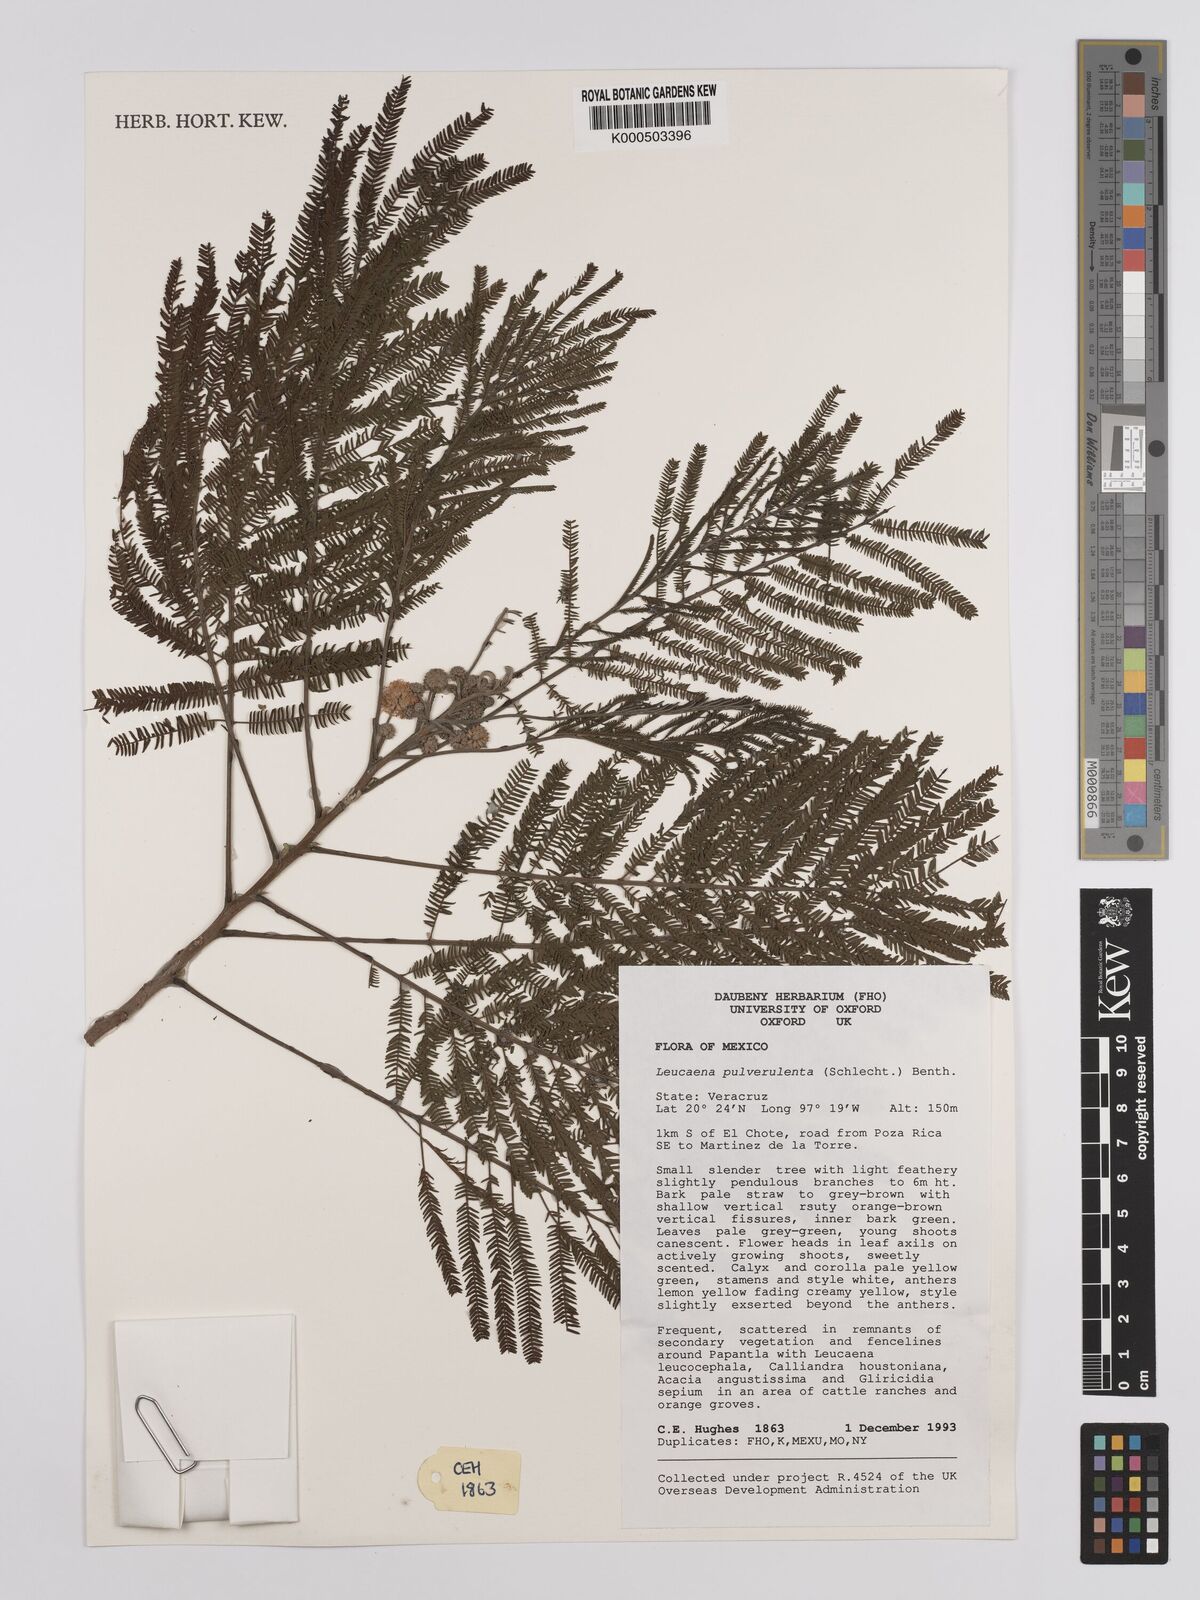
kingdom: Plantae
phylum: Tracheophyta
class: Magnoliopsida
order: Fabales
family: Fabaceae
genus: Leucaena
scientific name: Leucaena pulverulenta
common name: Great leadtree
